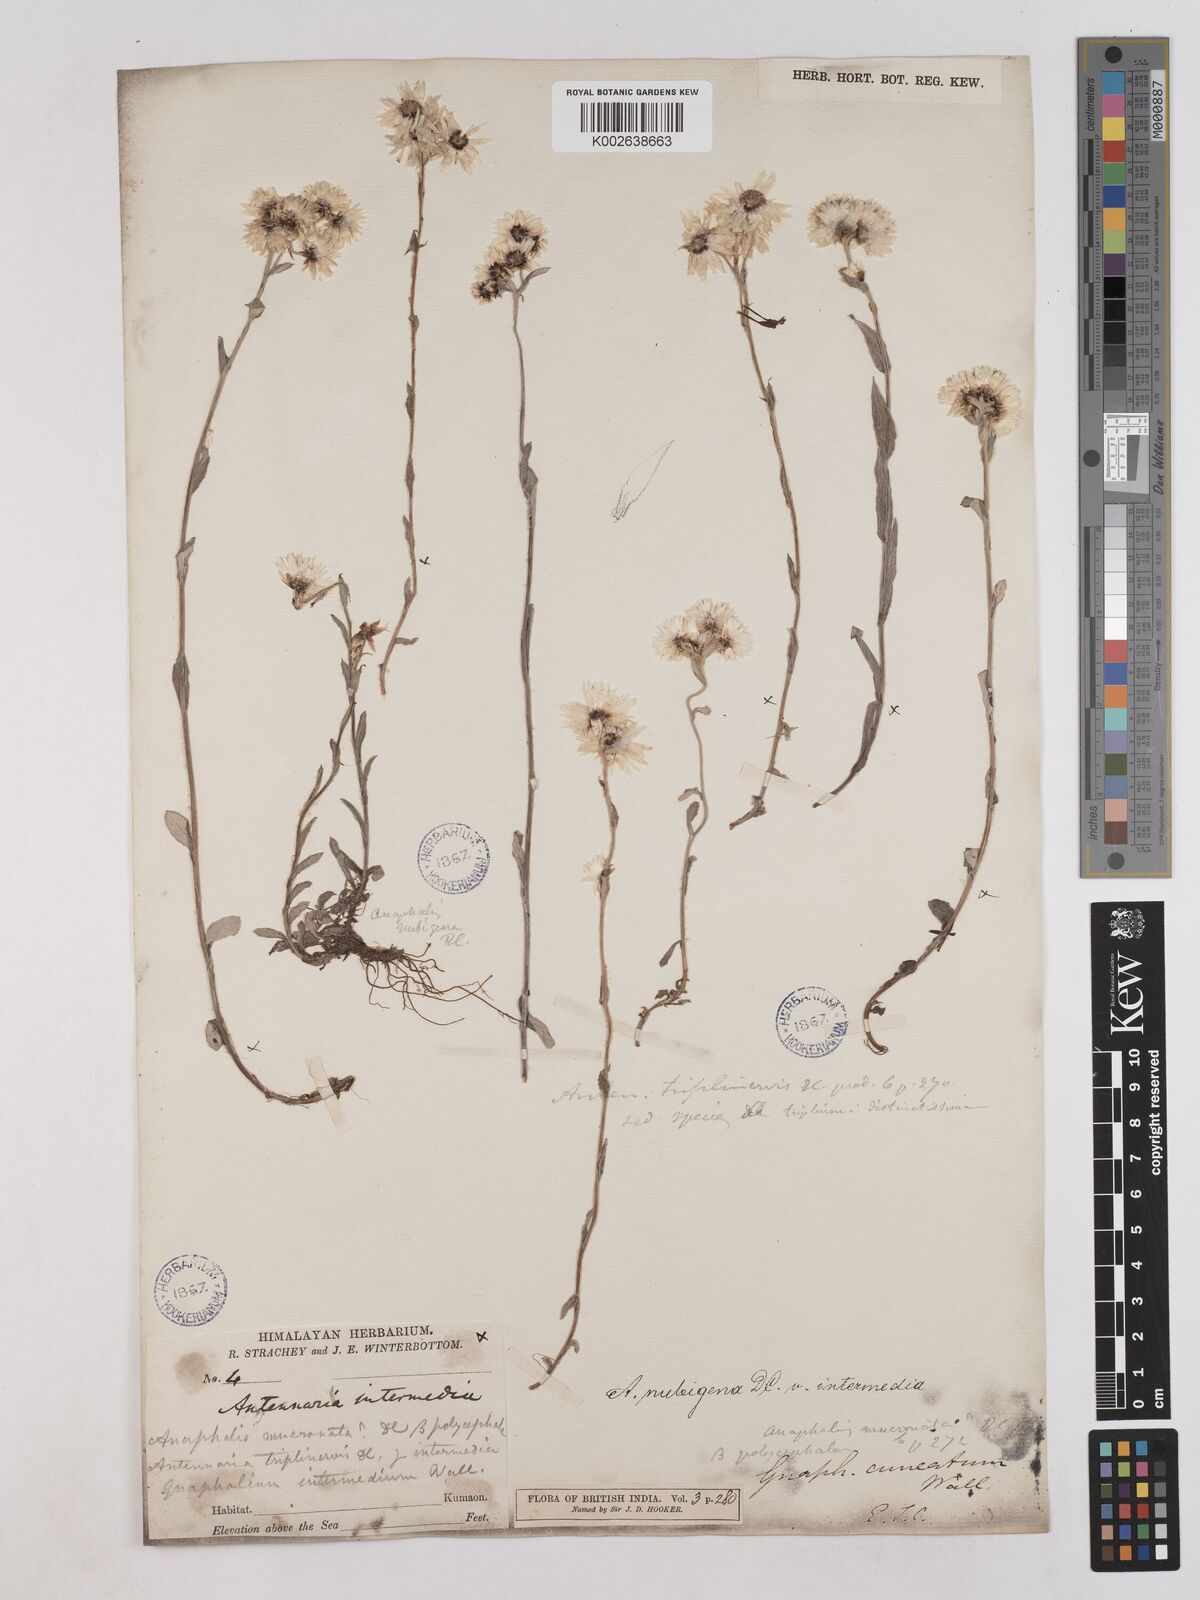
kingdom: Plantae
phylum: Tracheophyta
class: Magnoliopsida
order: Asterales
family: Asteraceae
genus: Anaphalioides
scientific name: Anaphalioides trinervis
